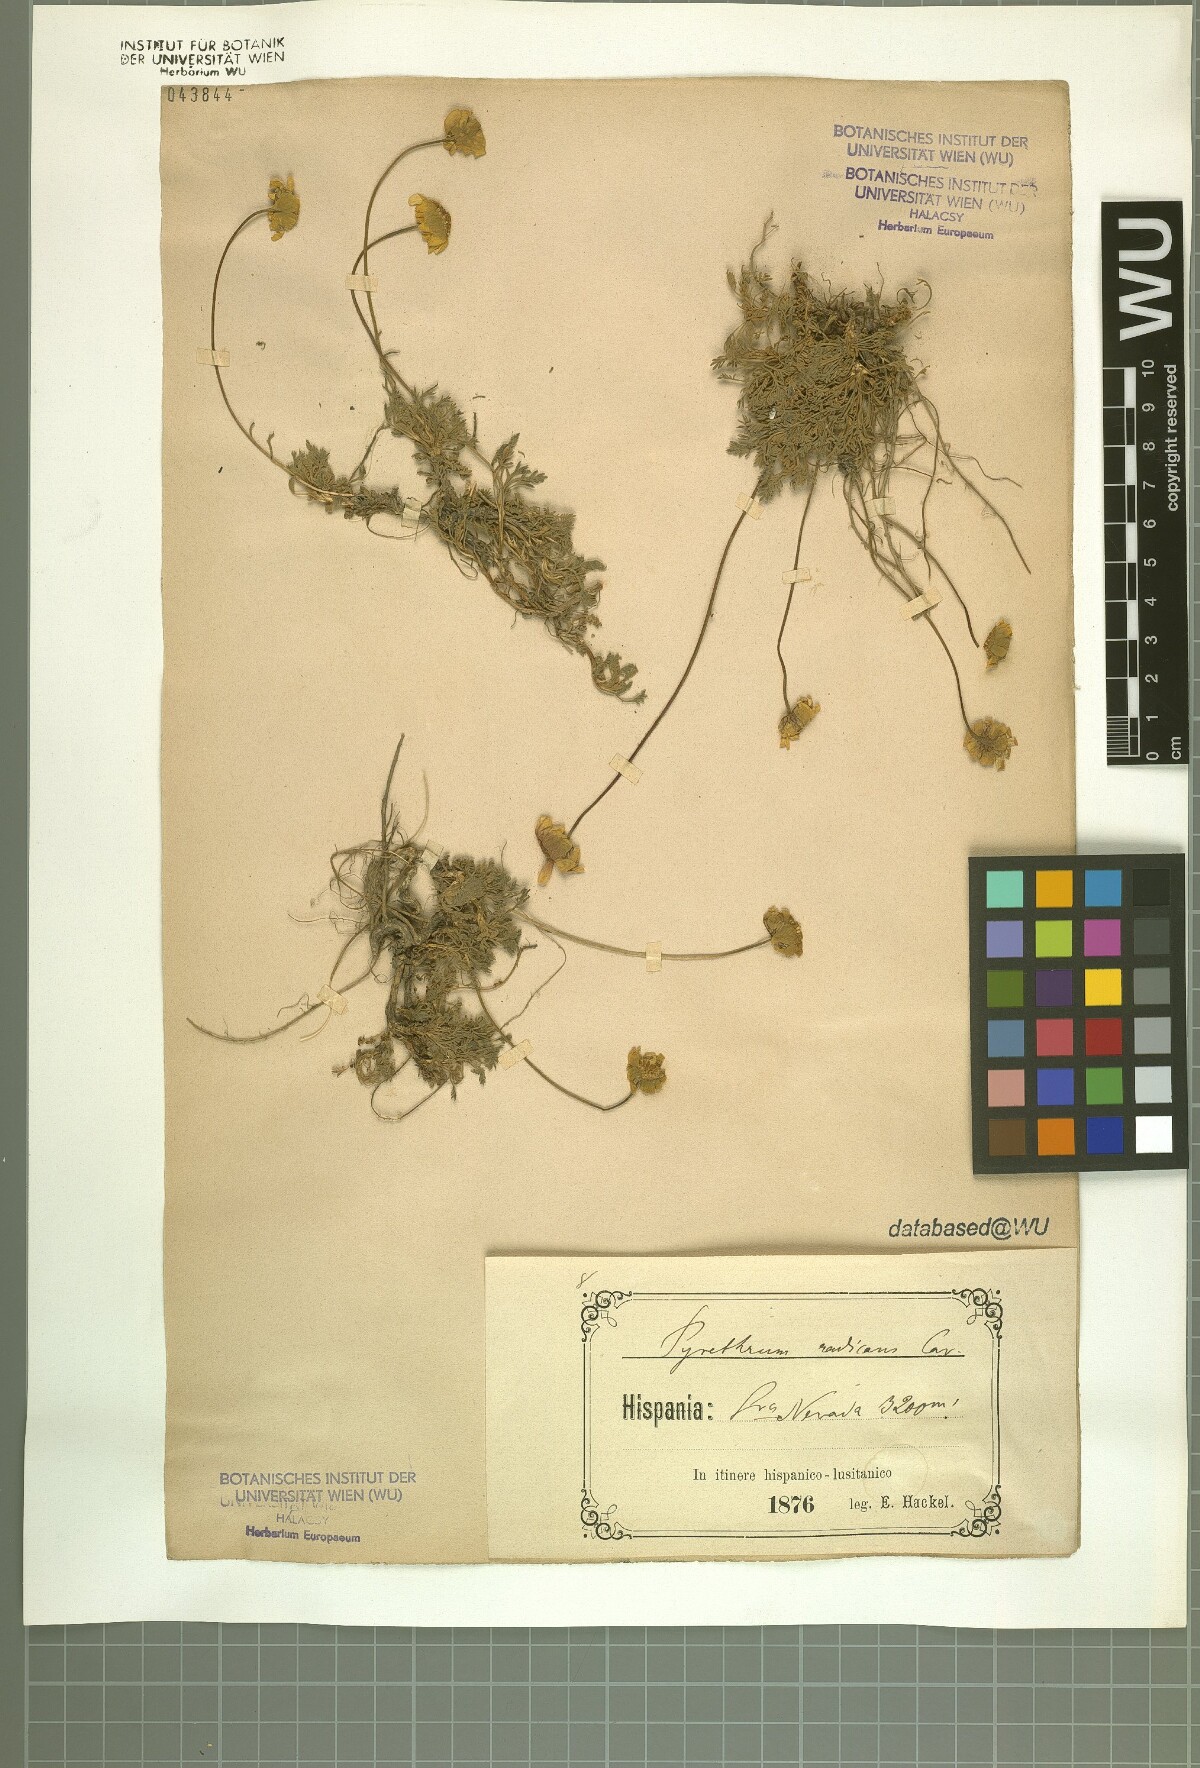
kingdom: Plantae
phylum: Tracheophyta
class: Magnoliopsida
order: Asterales
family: Asteraceae
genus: Leucanthemopsis
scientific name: Leucanthemopsis pectinata
